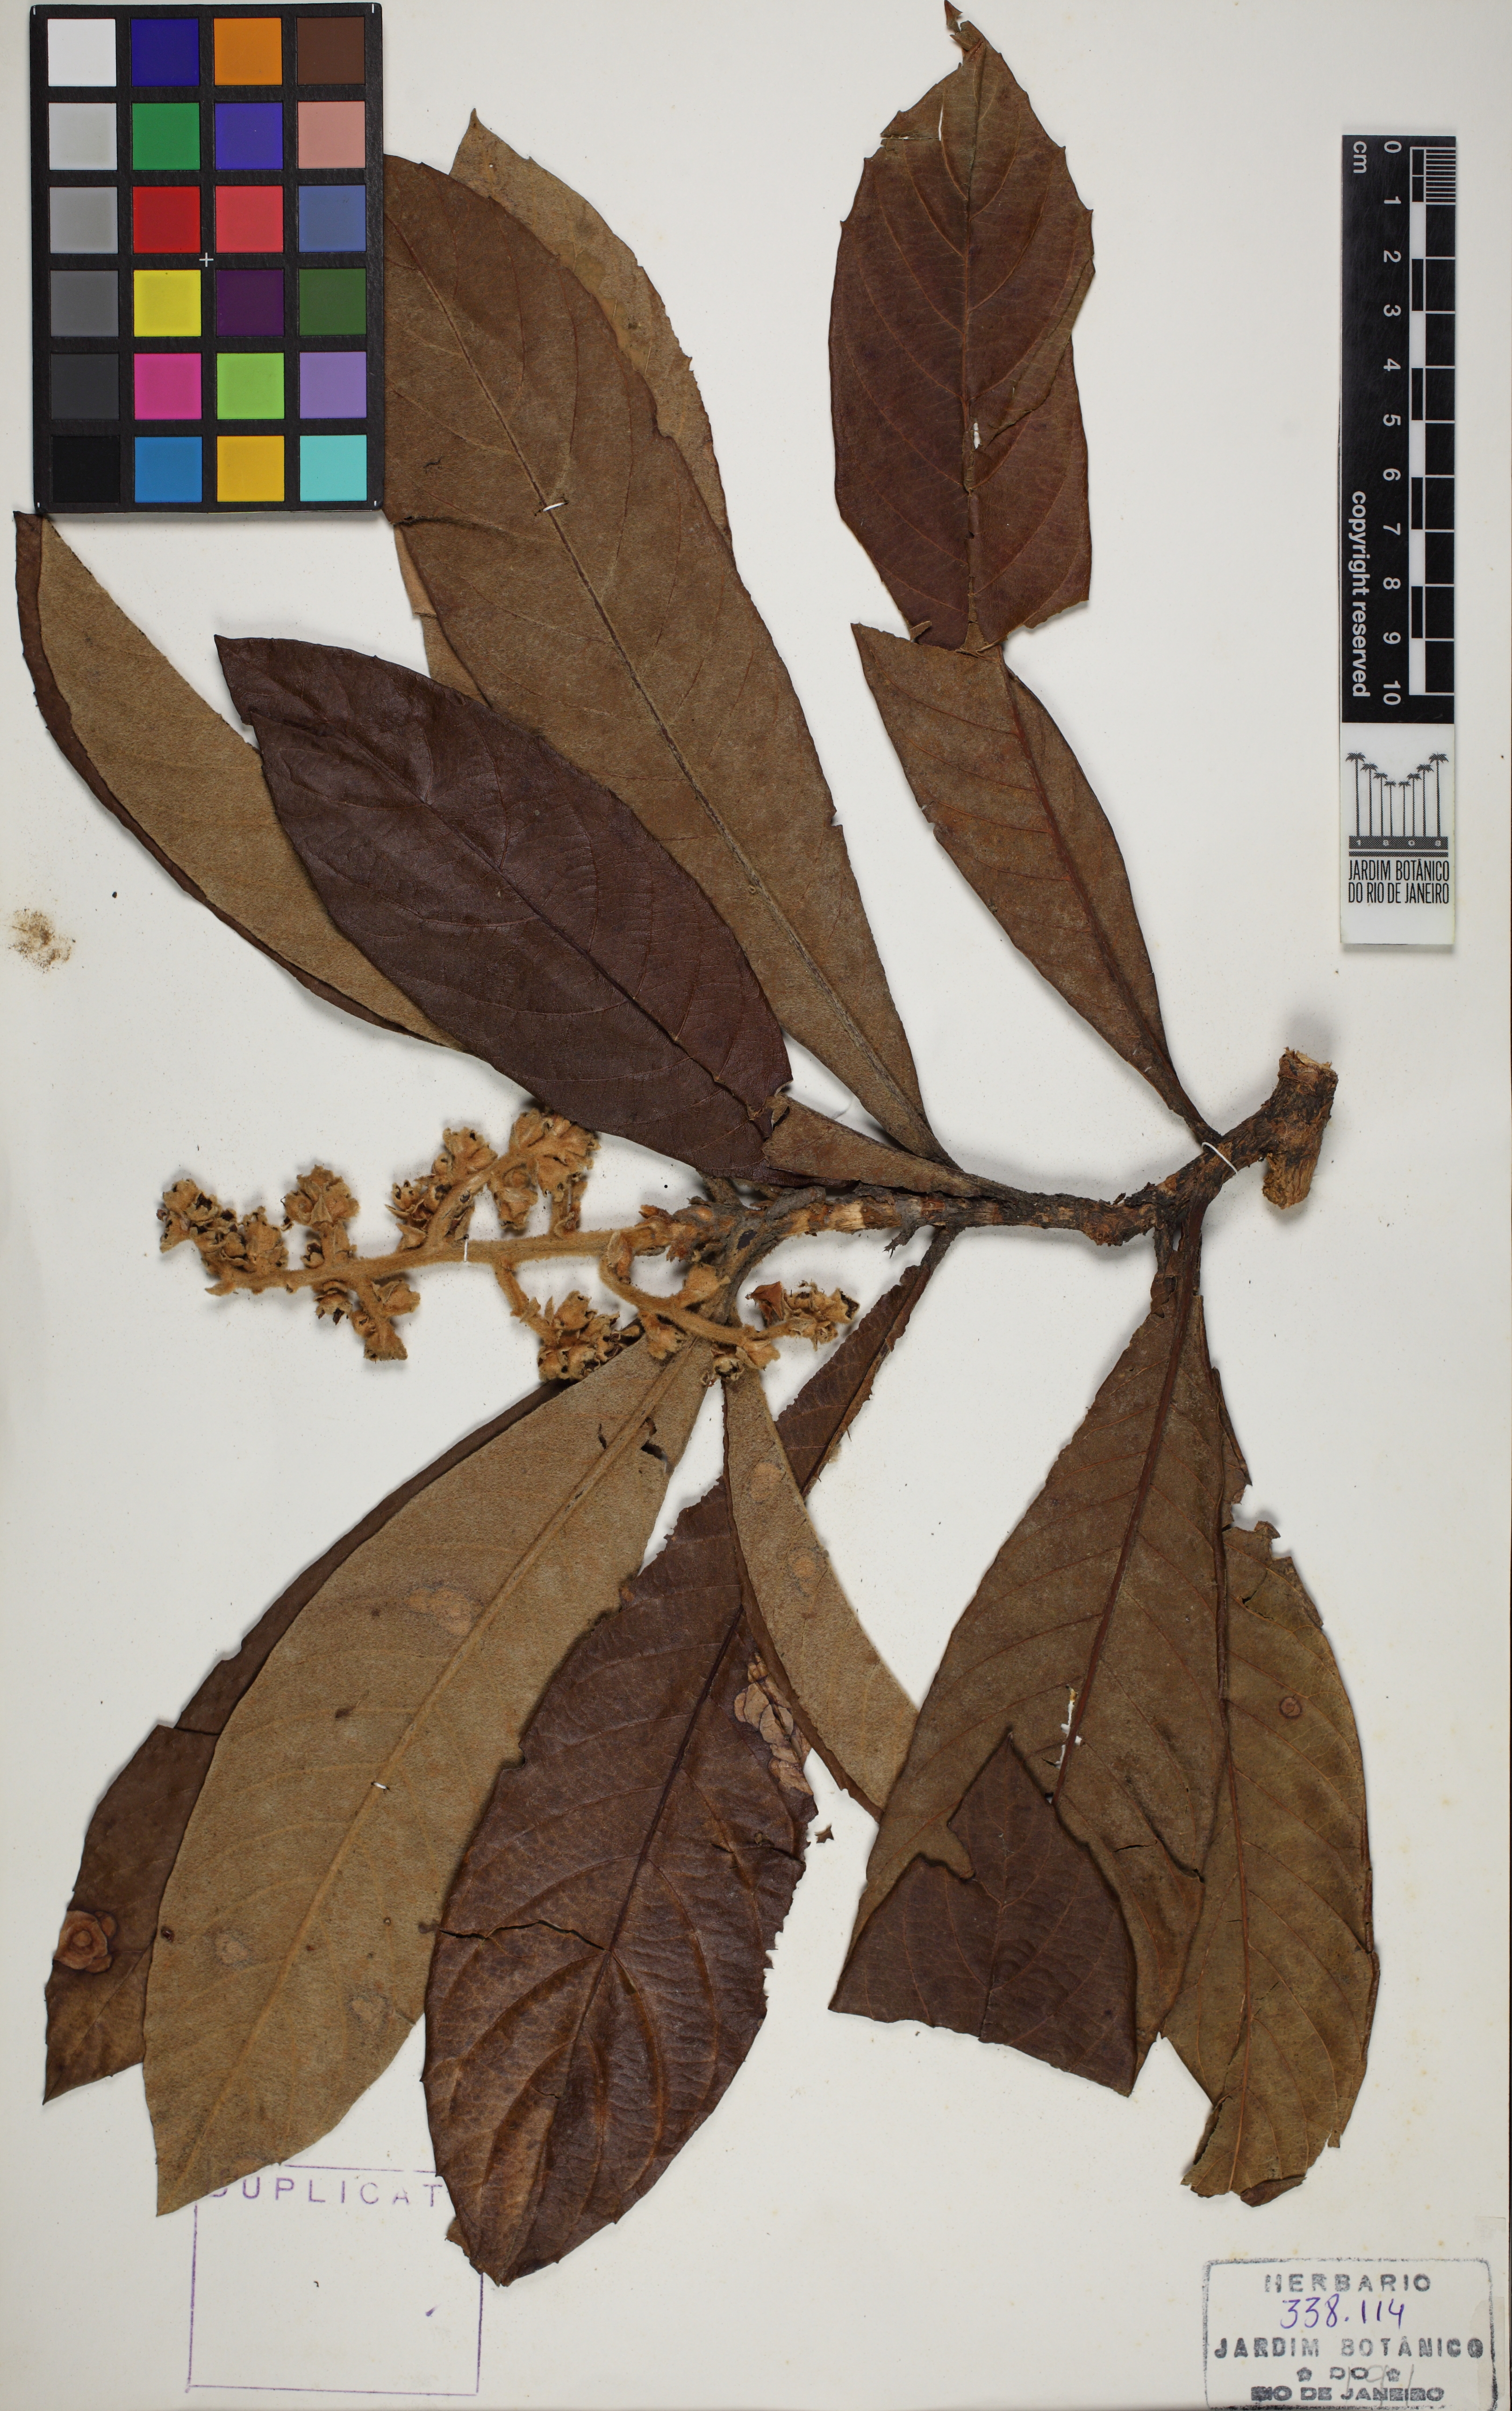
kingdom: Plantae
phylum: Tracheophyta
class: Magnoliopsida
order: Rosales
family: Rosaceae
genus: Rhaphiolepis
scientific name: Rhaphiolepis bibas
